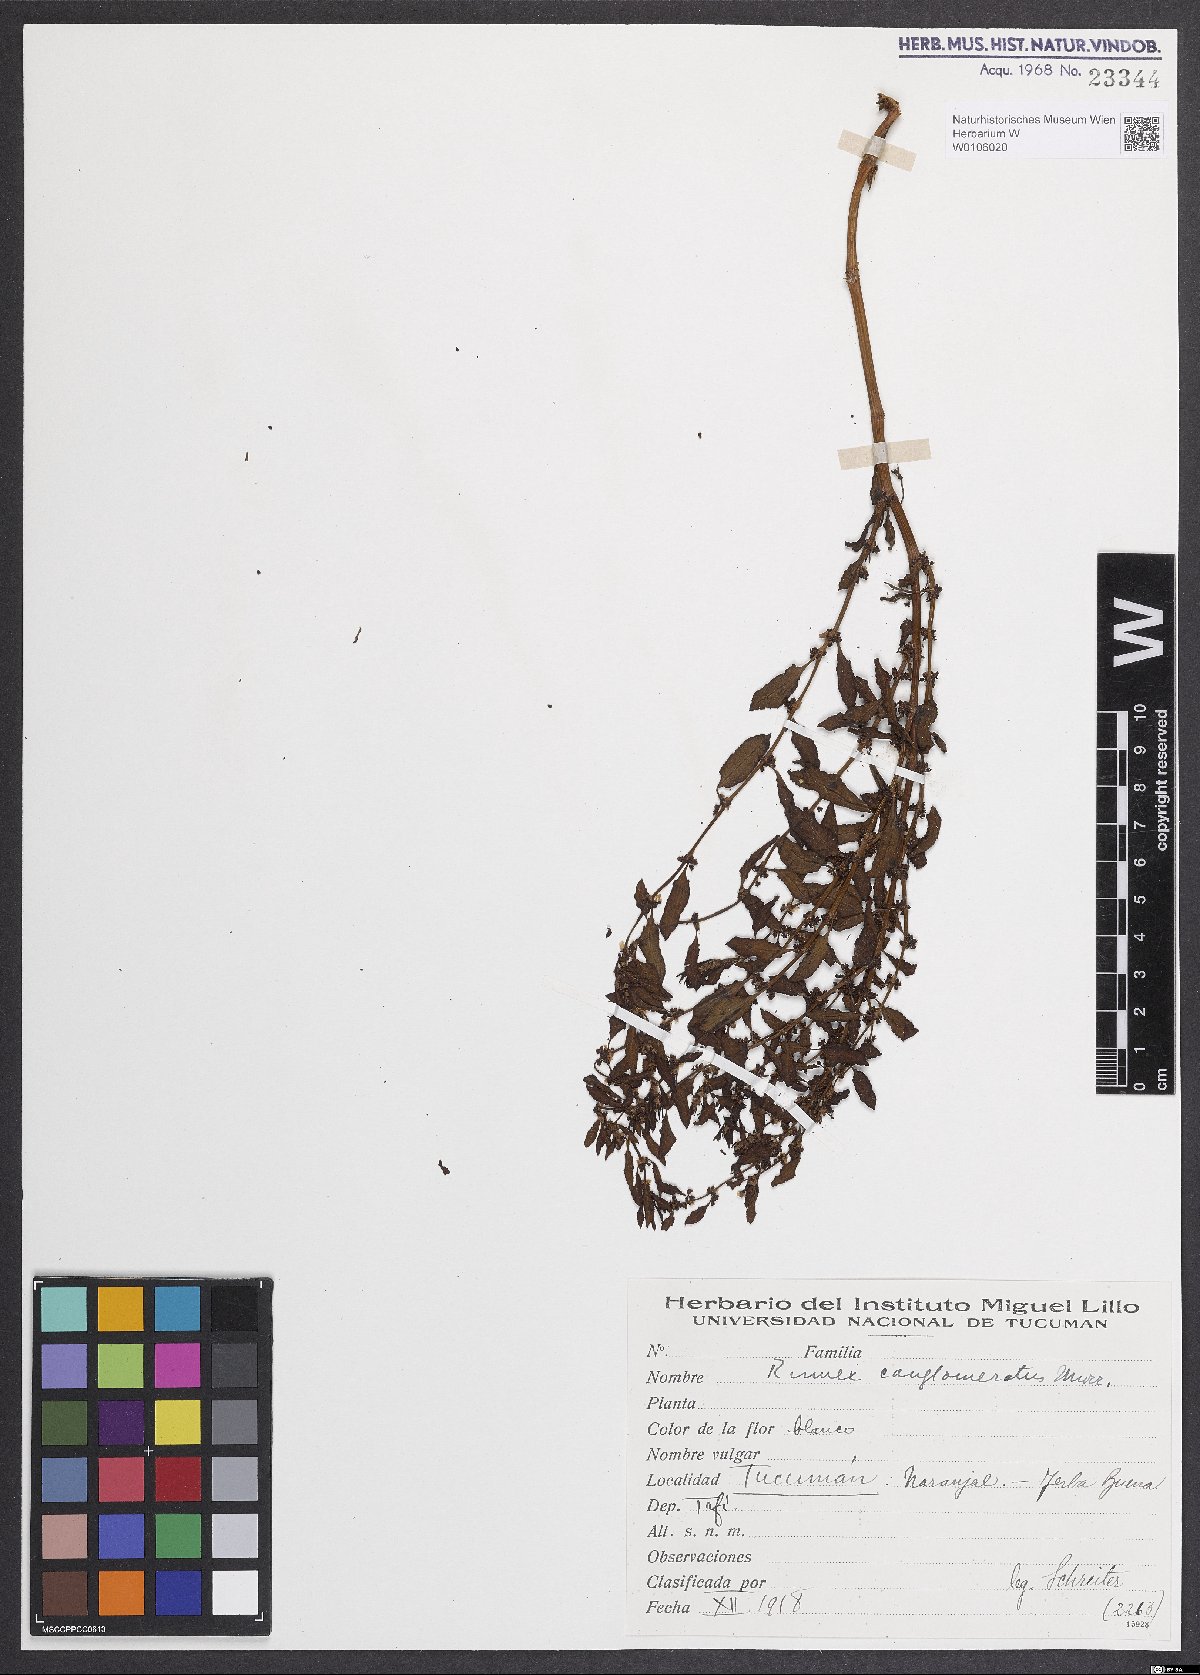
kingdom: Plantae
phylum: Tracheophyta
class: Magnoliopsida
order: Caryophyllales
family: Polygonaceae
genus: Rumex
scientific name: Rumex conglomeratus
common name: Clustered dock
